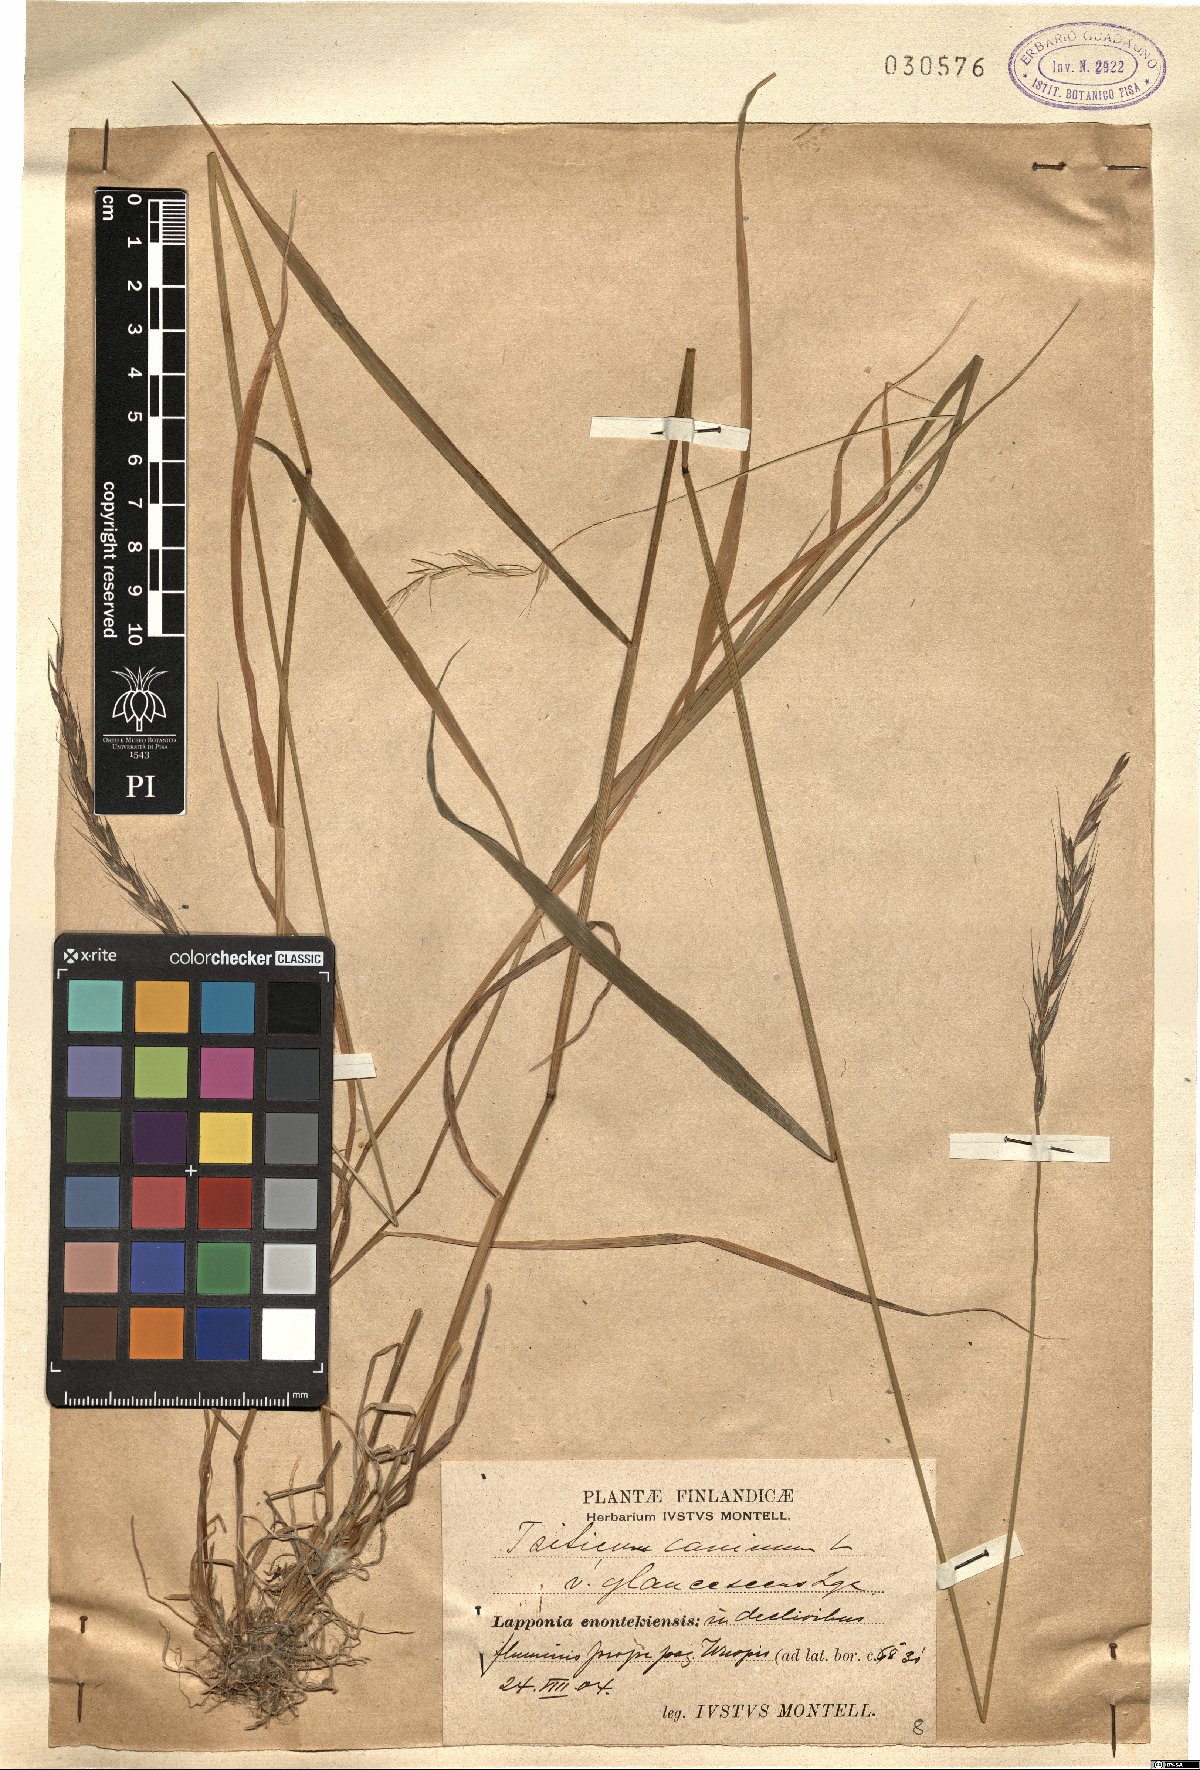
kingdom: Plantae
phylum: Tracheophyta
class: Liliopsida
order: Poales
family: Poaceae
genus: Elymus
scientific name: Elymus caninus
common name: Bearded couch
